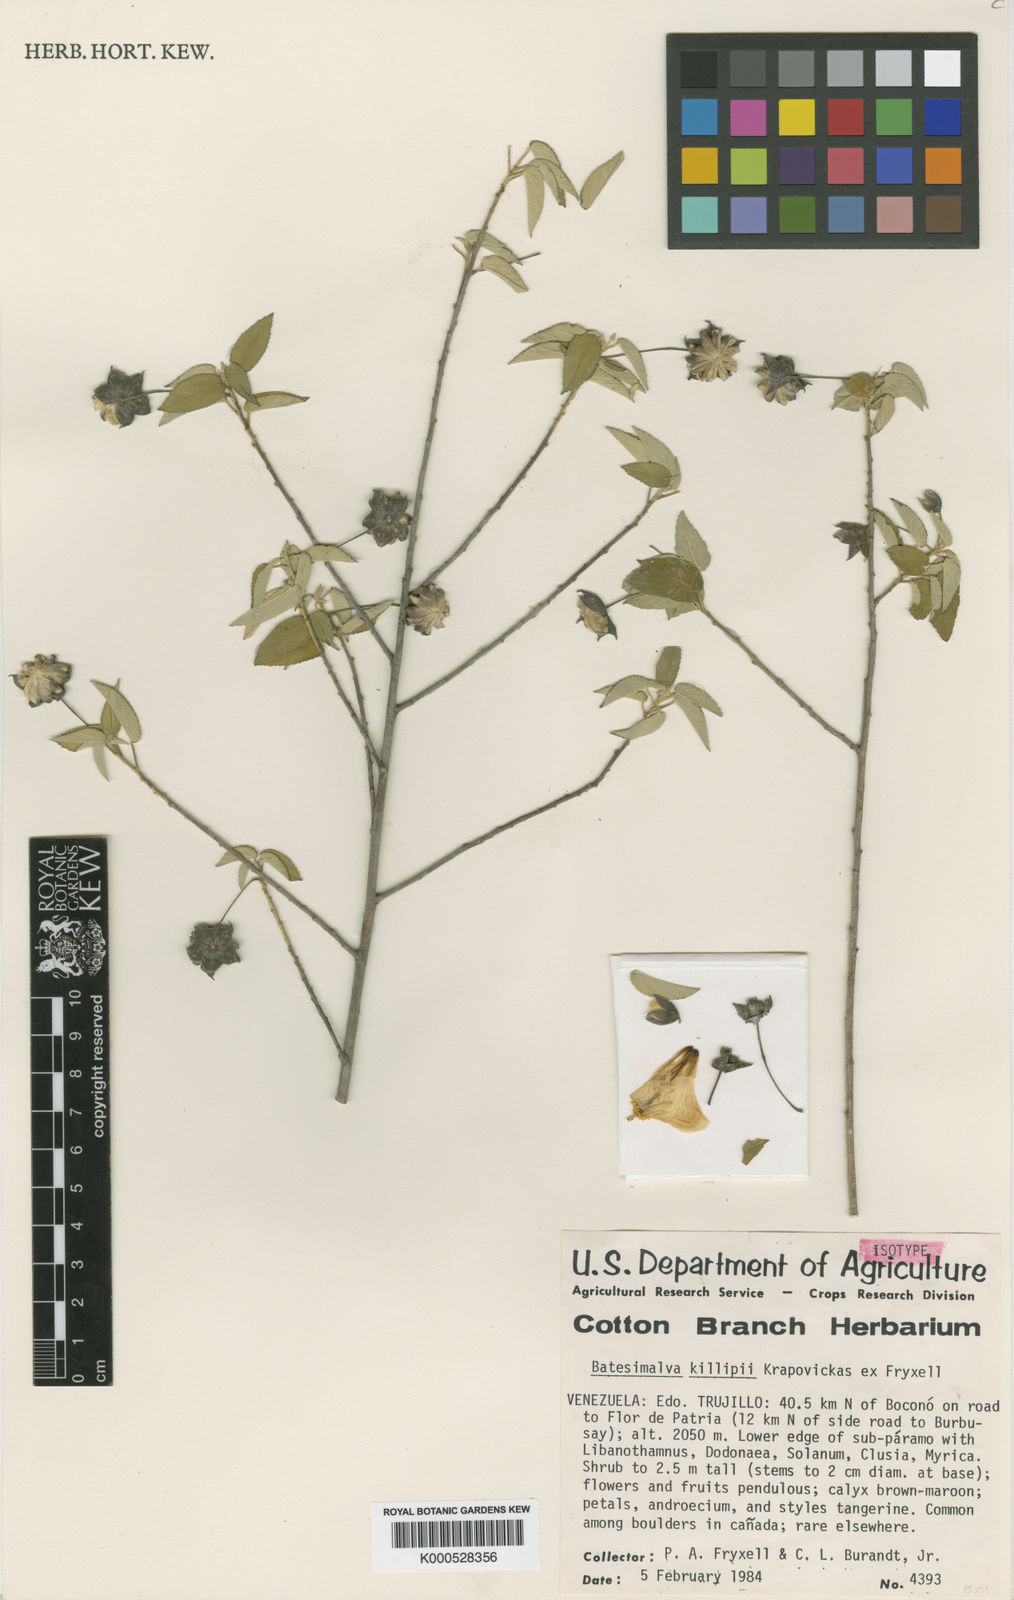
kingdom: Plantae
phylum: Tracheophyta
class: Magnoliopsida
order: Malvales
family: Malvaceae
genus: Batesimalva
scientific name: Batesimalva killipii
